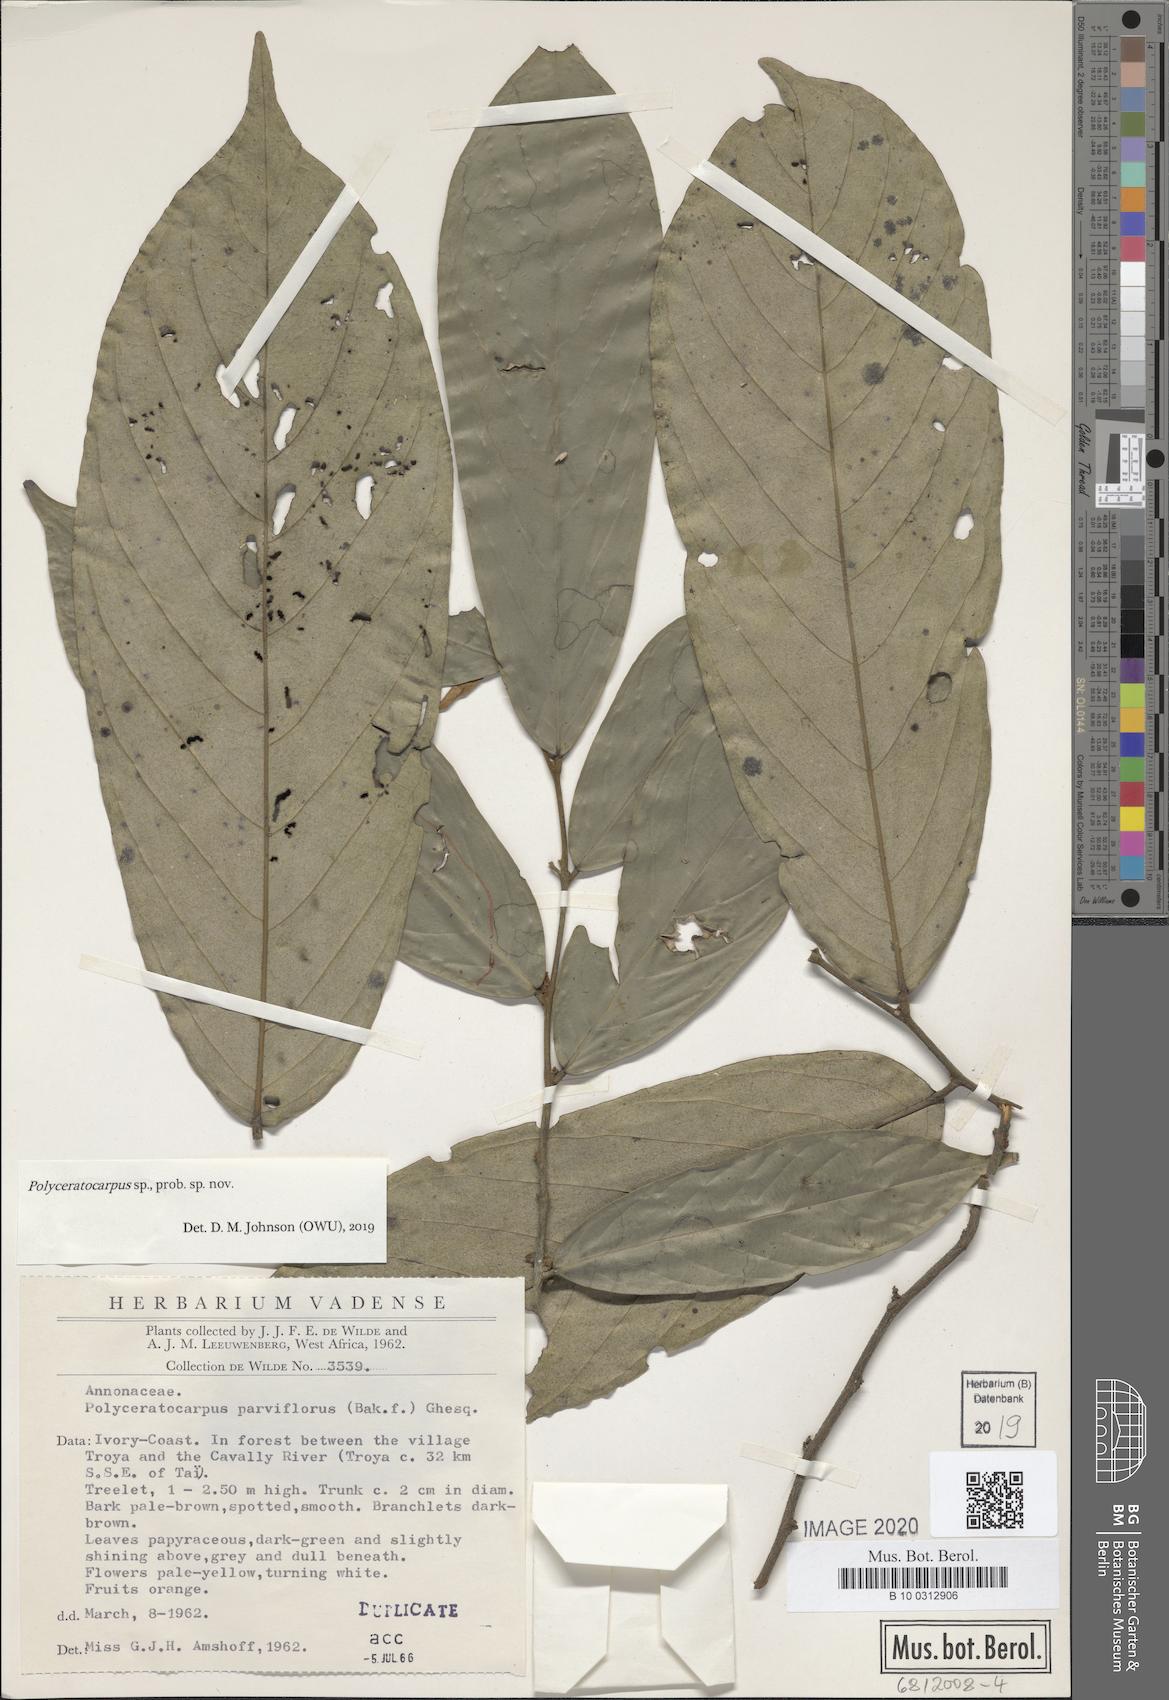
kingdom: Plantae
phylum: Tracheophyta
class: Magnoliopsida
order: Magnoliales
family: Annonaceae
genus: Polyceratocarpus
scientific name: Polyceratocarpus
